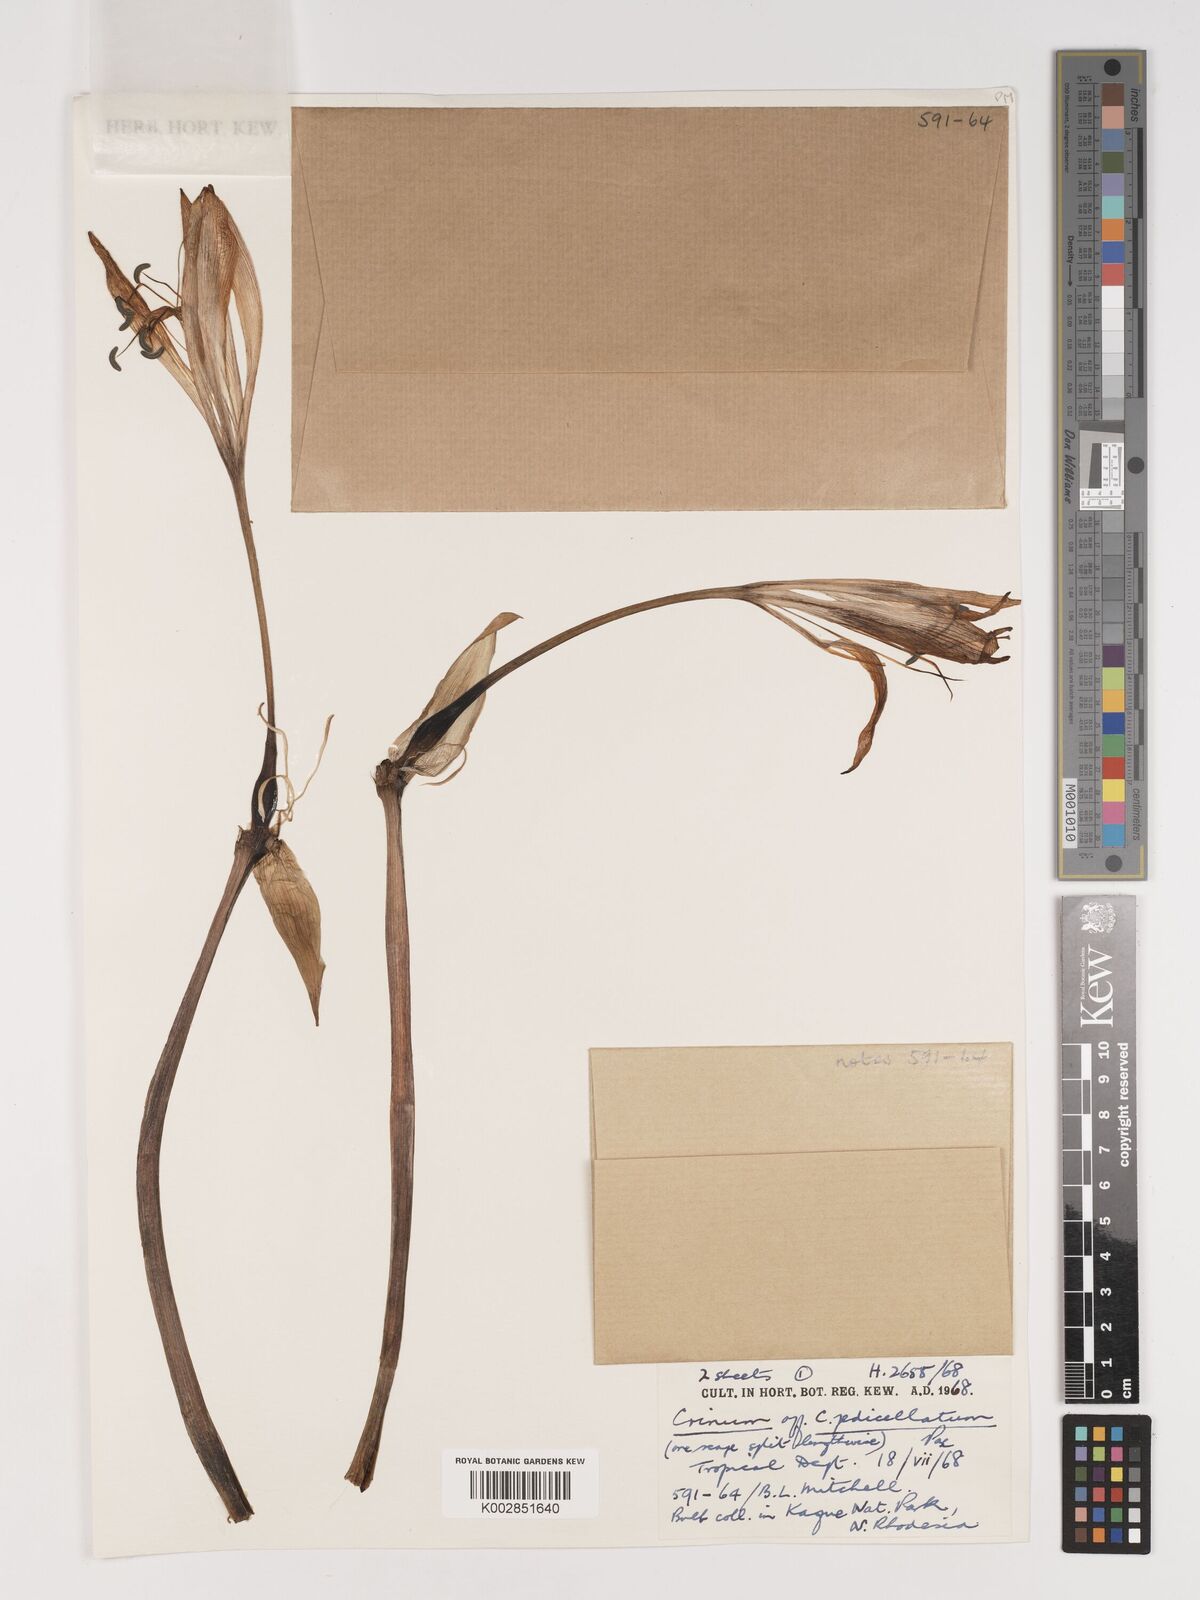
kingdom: Plantae
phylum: Tracheophyta
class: Liliopsida
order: Asparagales
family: Amaryllidaceae
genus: Crinum
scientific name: Crinum macowanii
